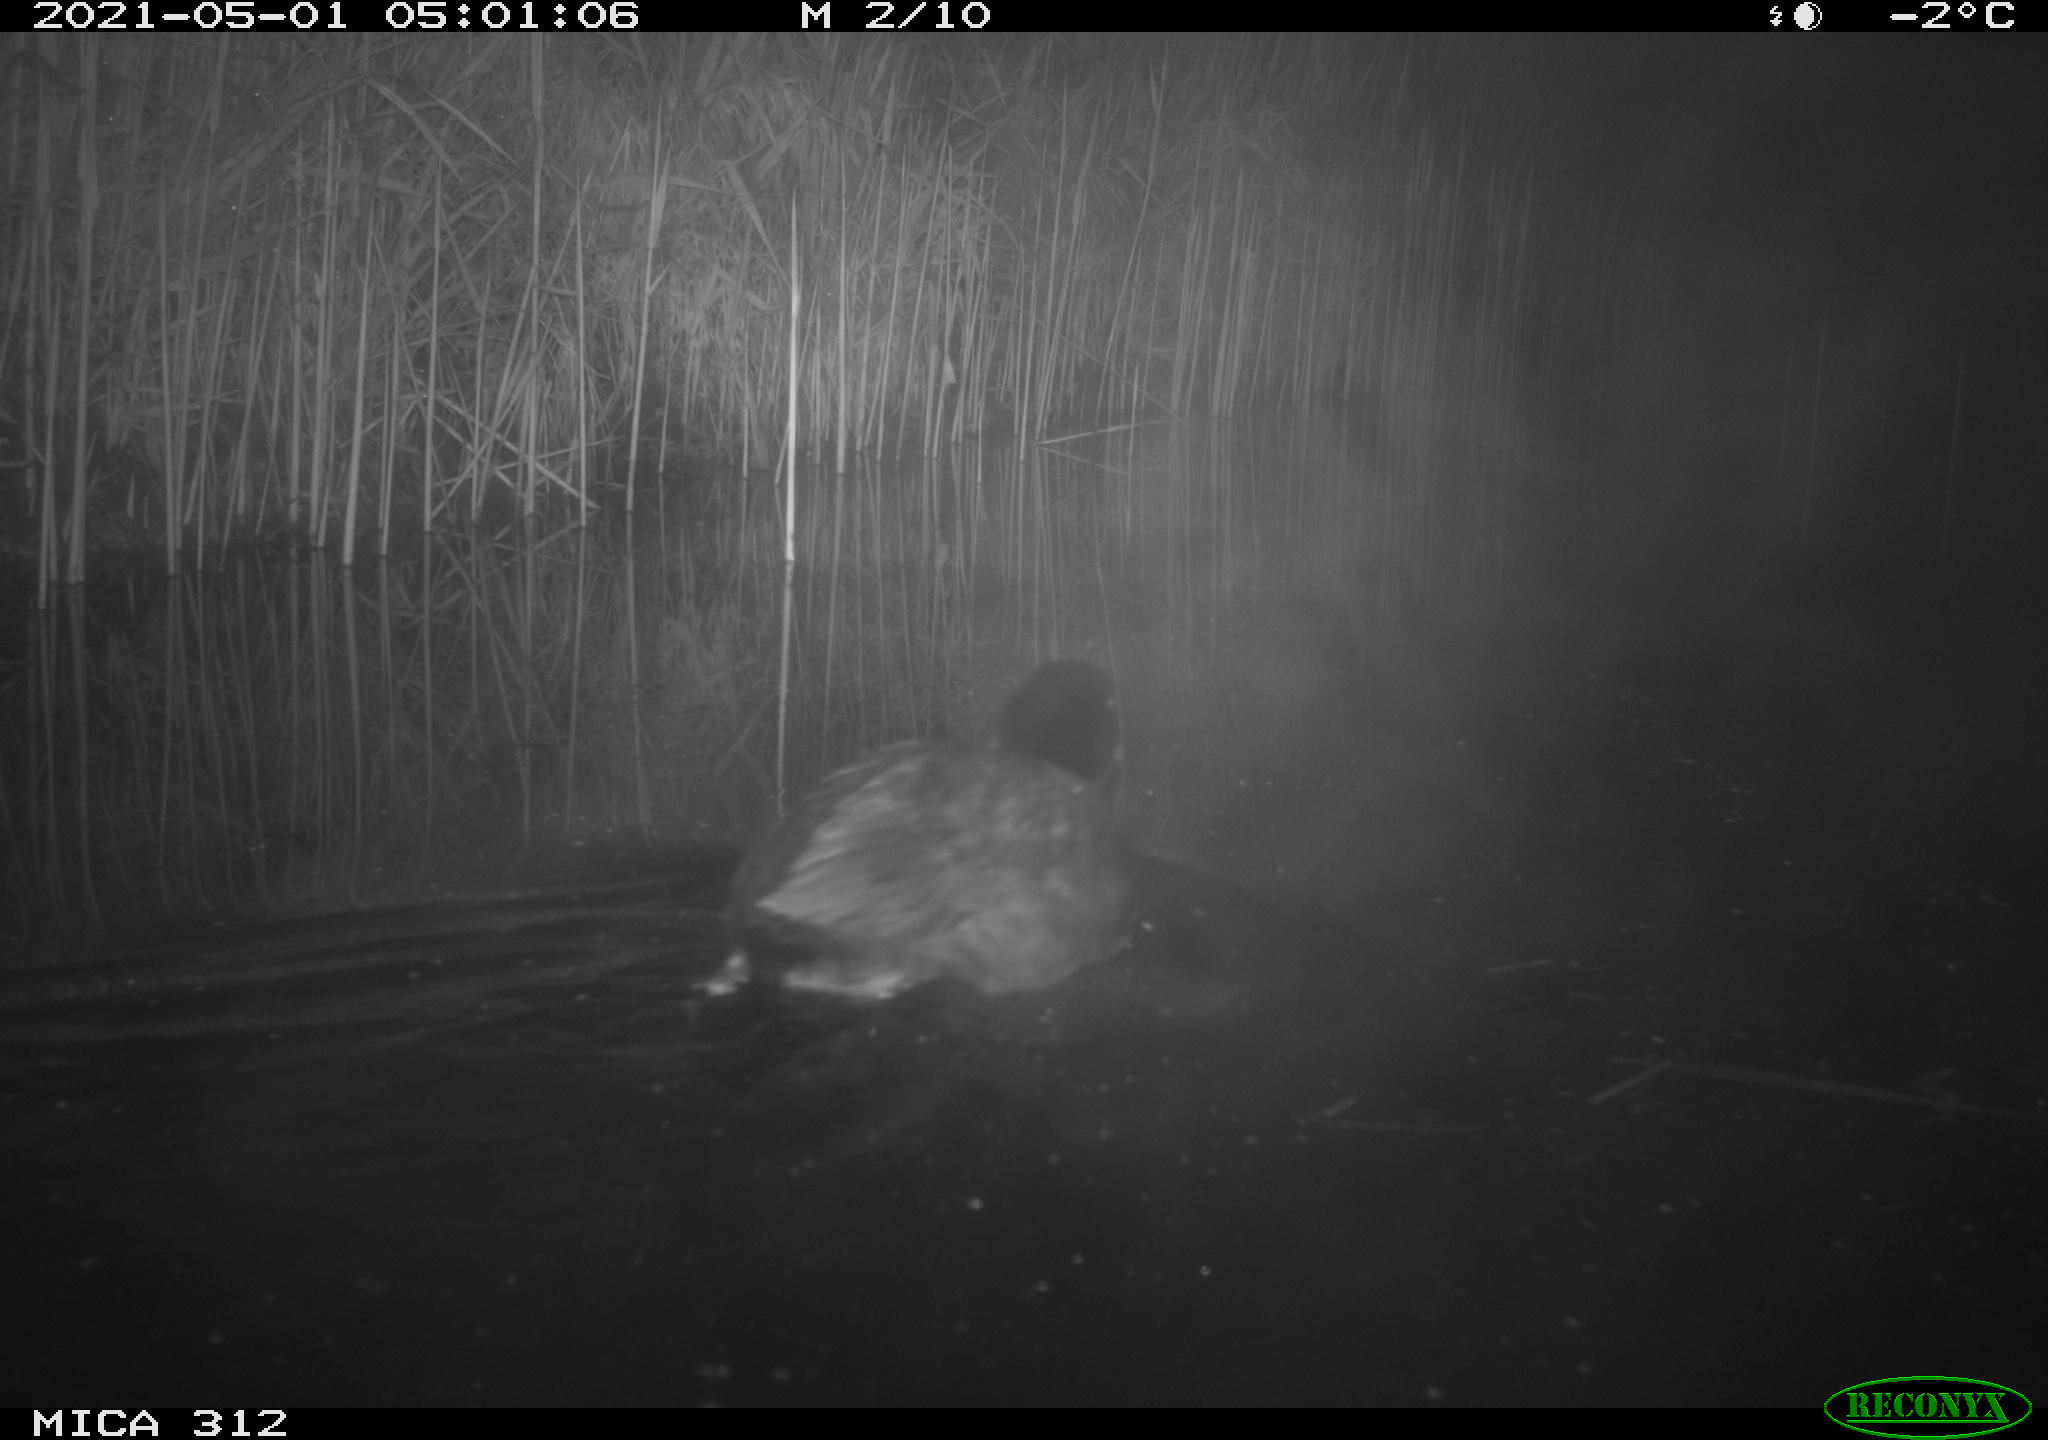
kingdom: Animalia
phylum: Chordata
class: Aves
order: Gruiformes
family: Rallidae
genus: Fulica
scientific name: Fulica atra
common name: Eurasian coot
